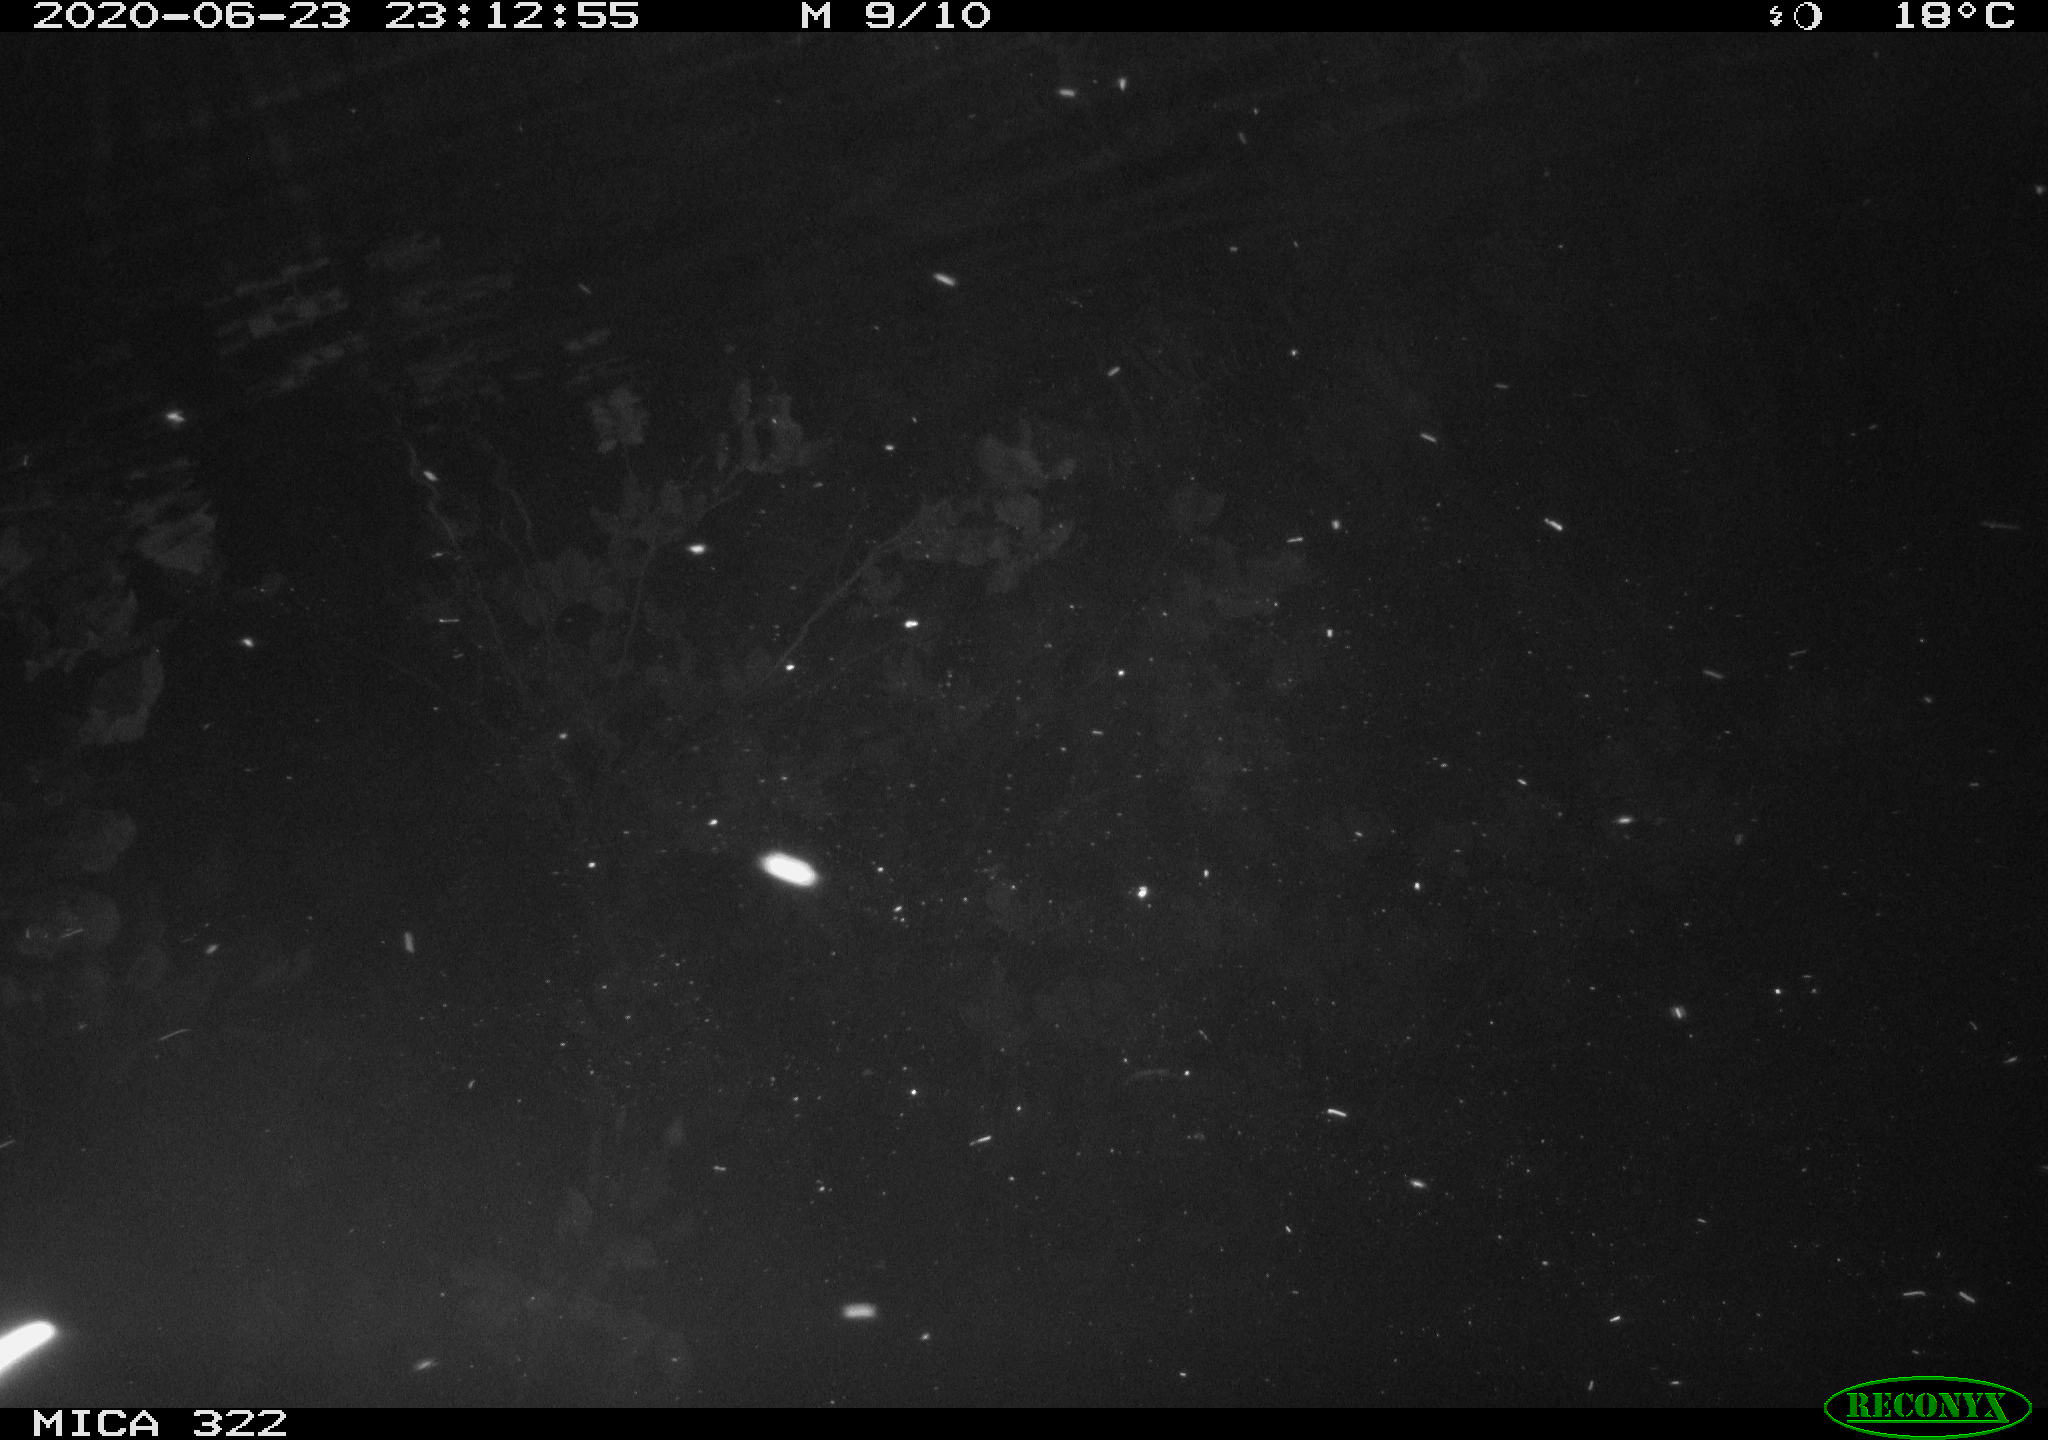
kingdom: Animalia
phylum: Chordata
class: Aves
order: Gruiformes
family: Rallidae
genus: Gallinula
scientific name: Gallinula chloropus
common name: Common moorhen
